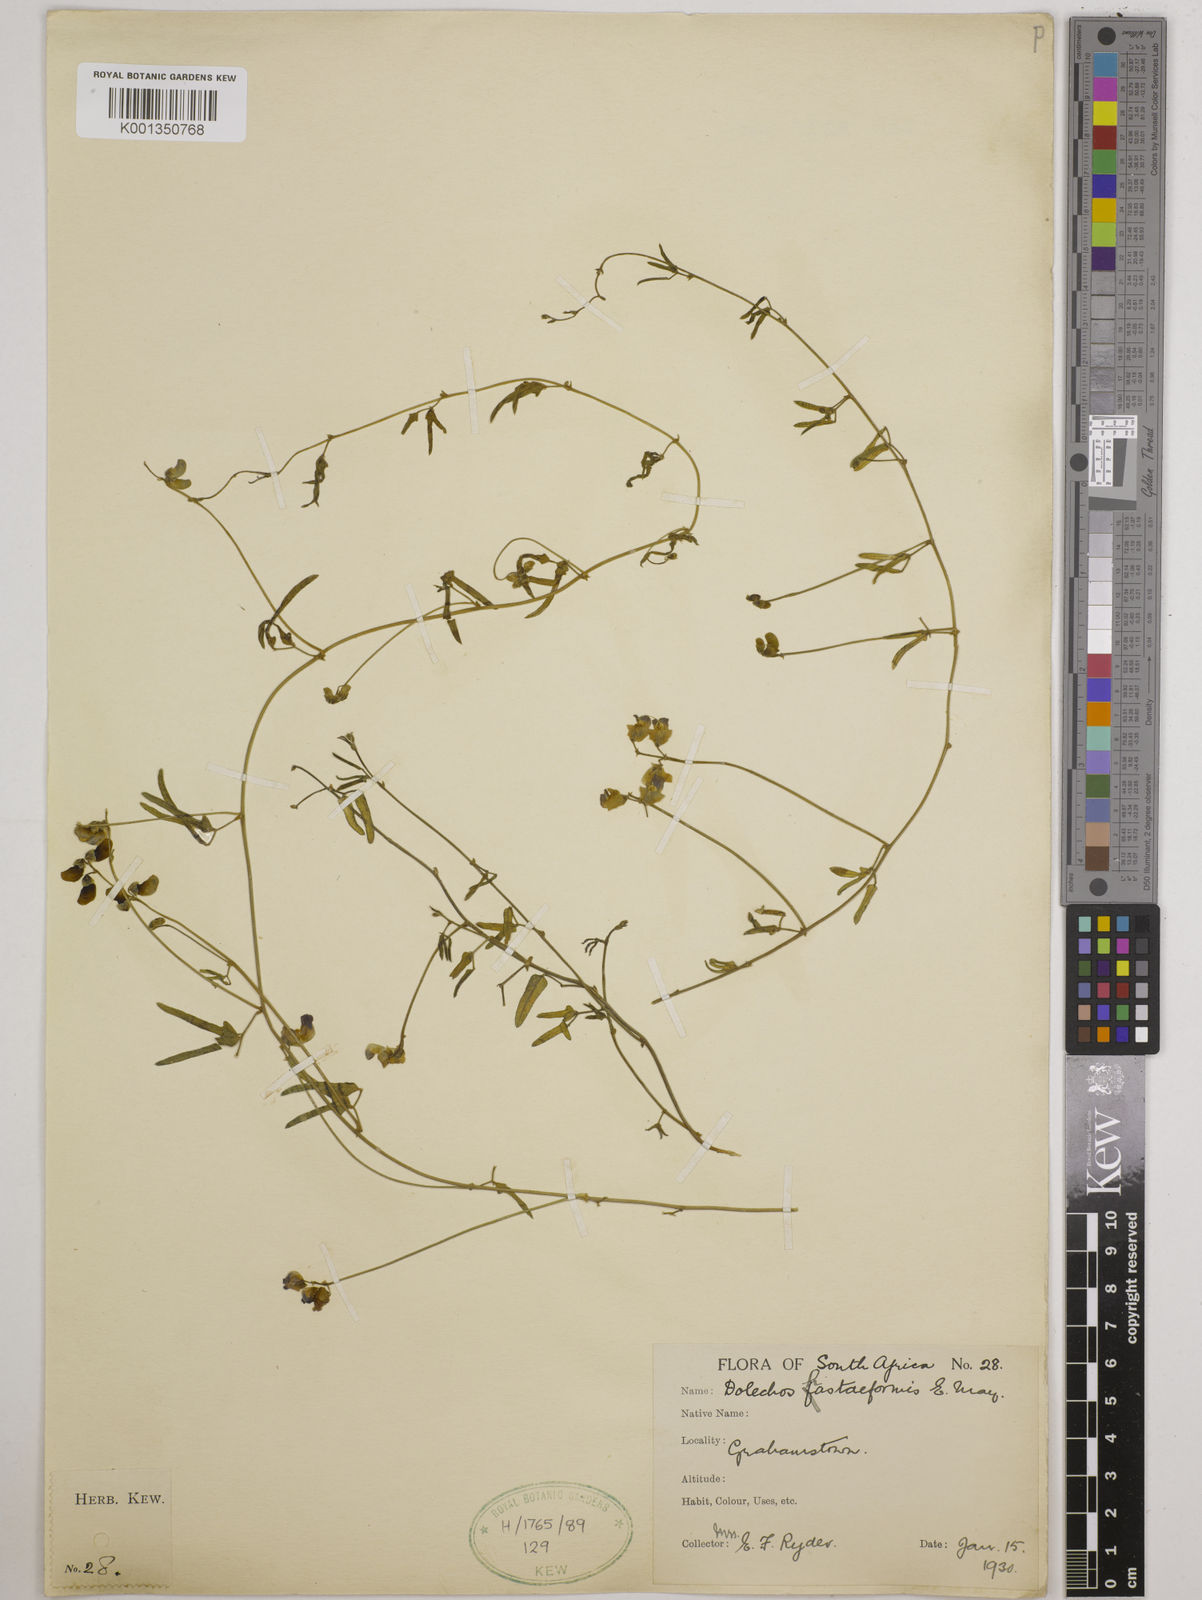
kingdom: Plantae
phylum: Tracheophyta
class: Magnoliopsida
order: Fabales
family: Fabaceae
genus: Dolichos
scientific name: Dolichos
